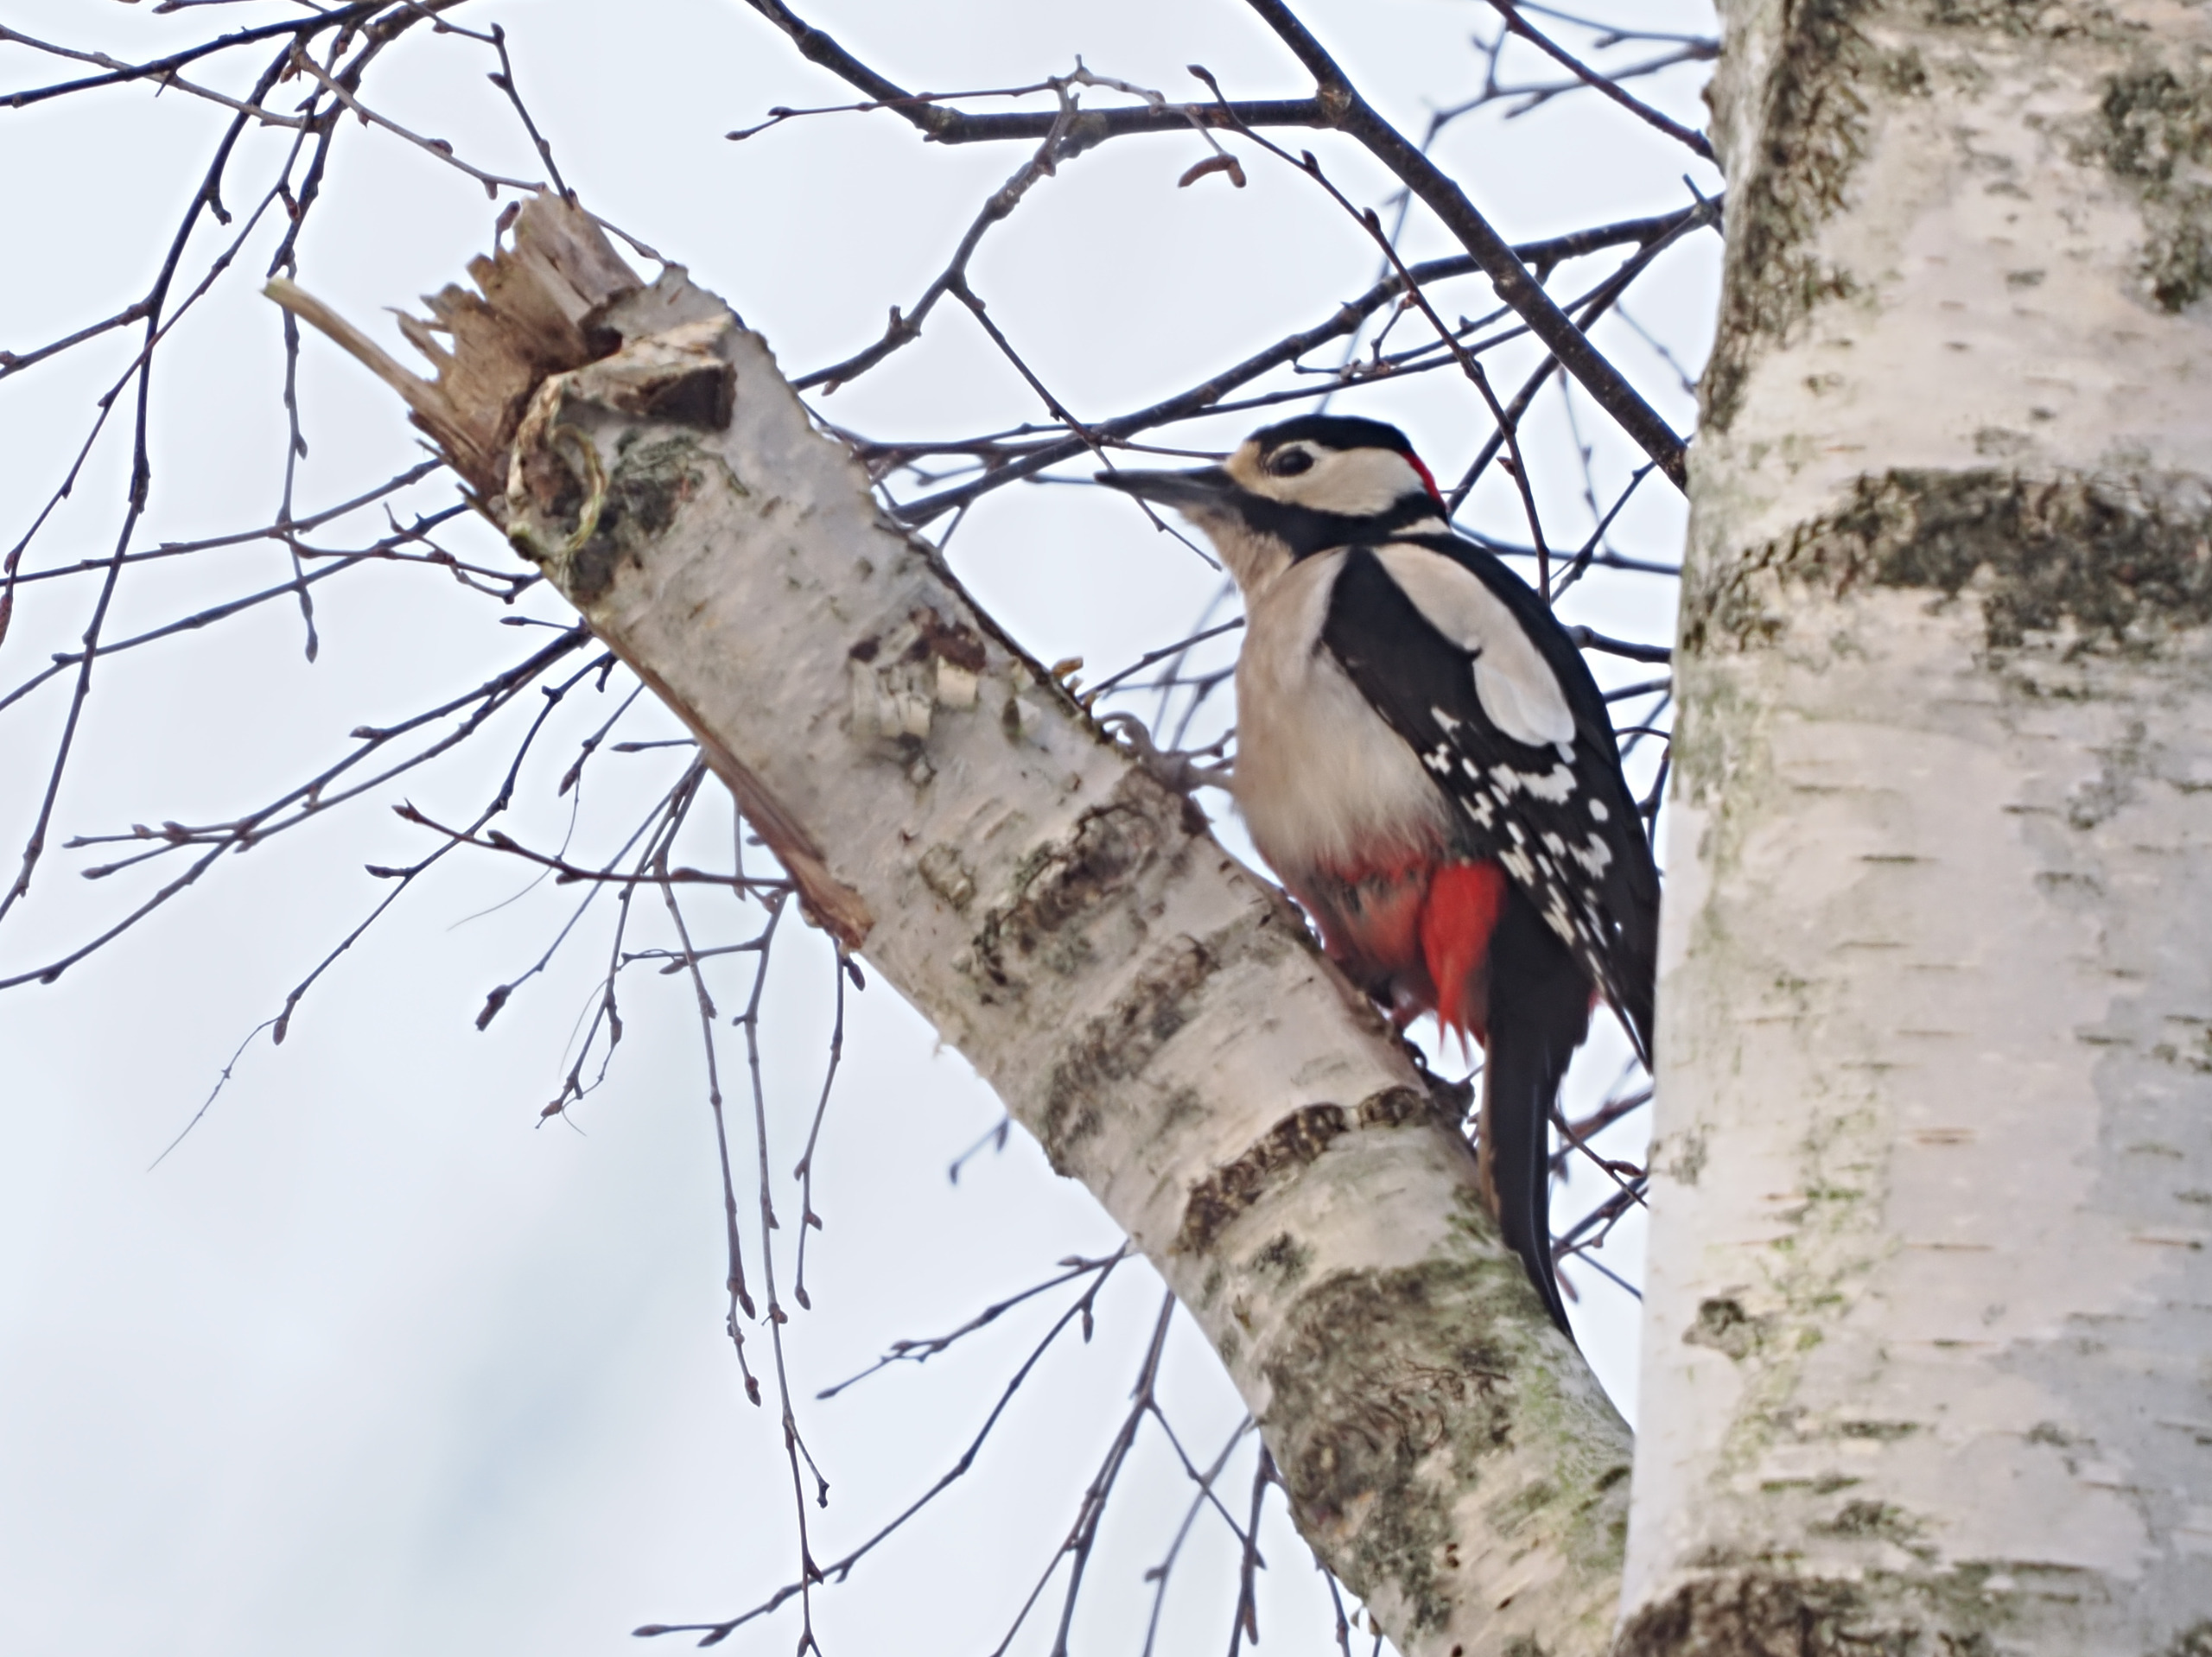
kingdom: Animalia
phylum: Chordata
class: Aves
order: Piciformes
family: Picidae
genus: Dendrocopos
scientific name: Dendrocopos major
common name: Stor flagspætte
